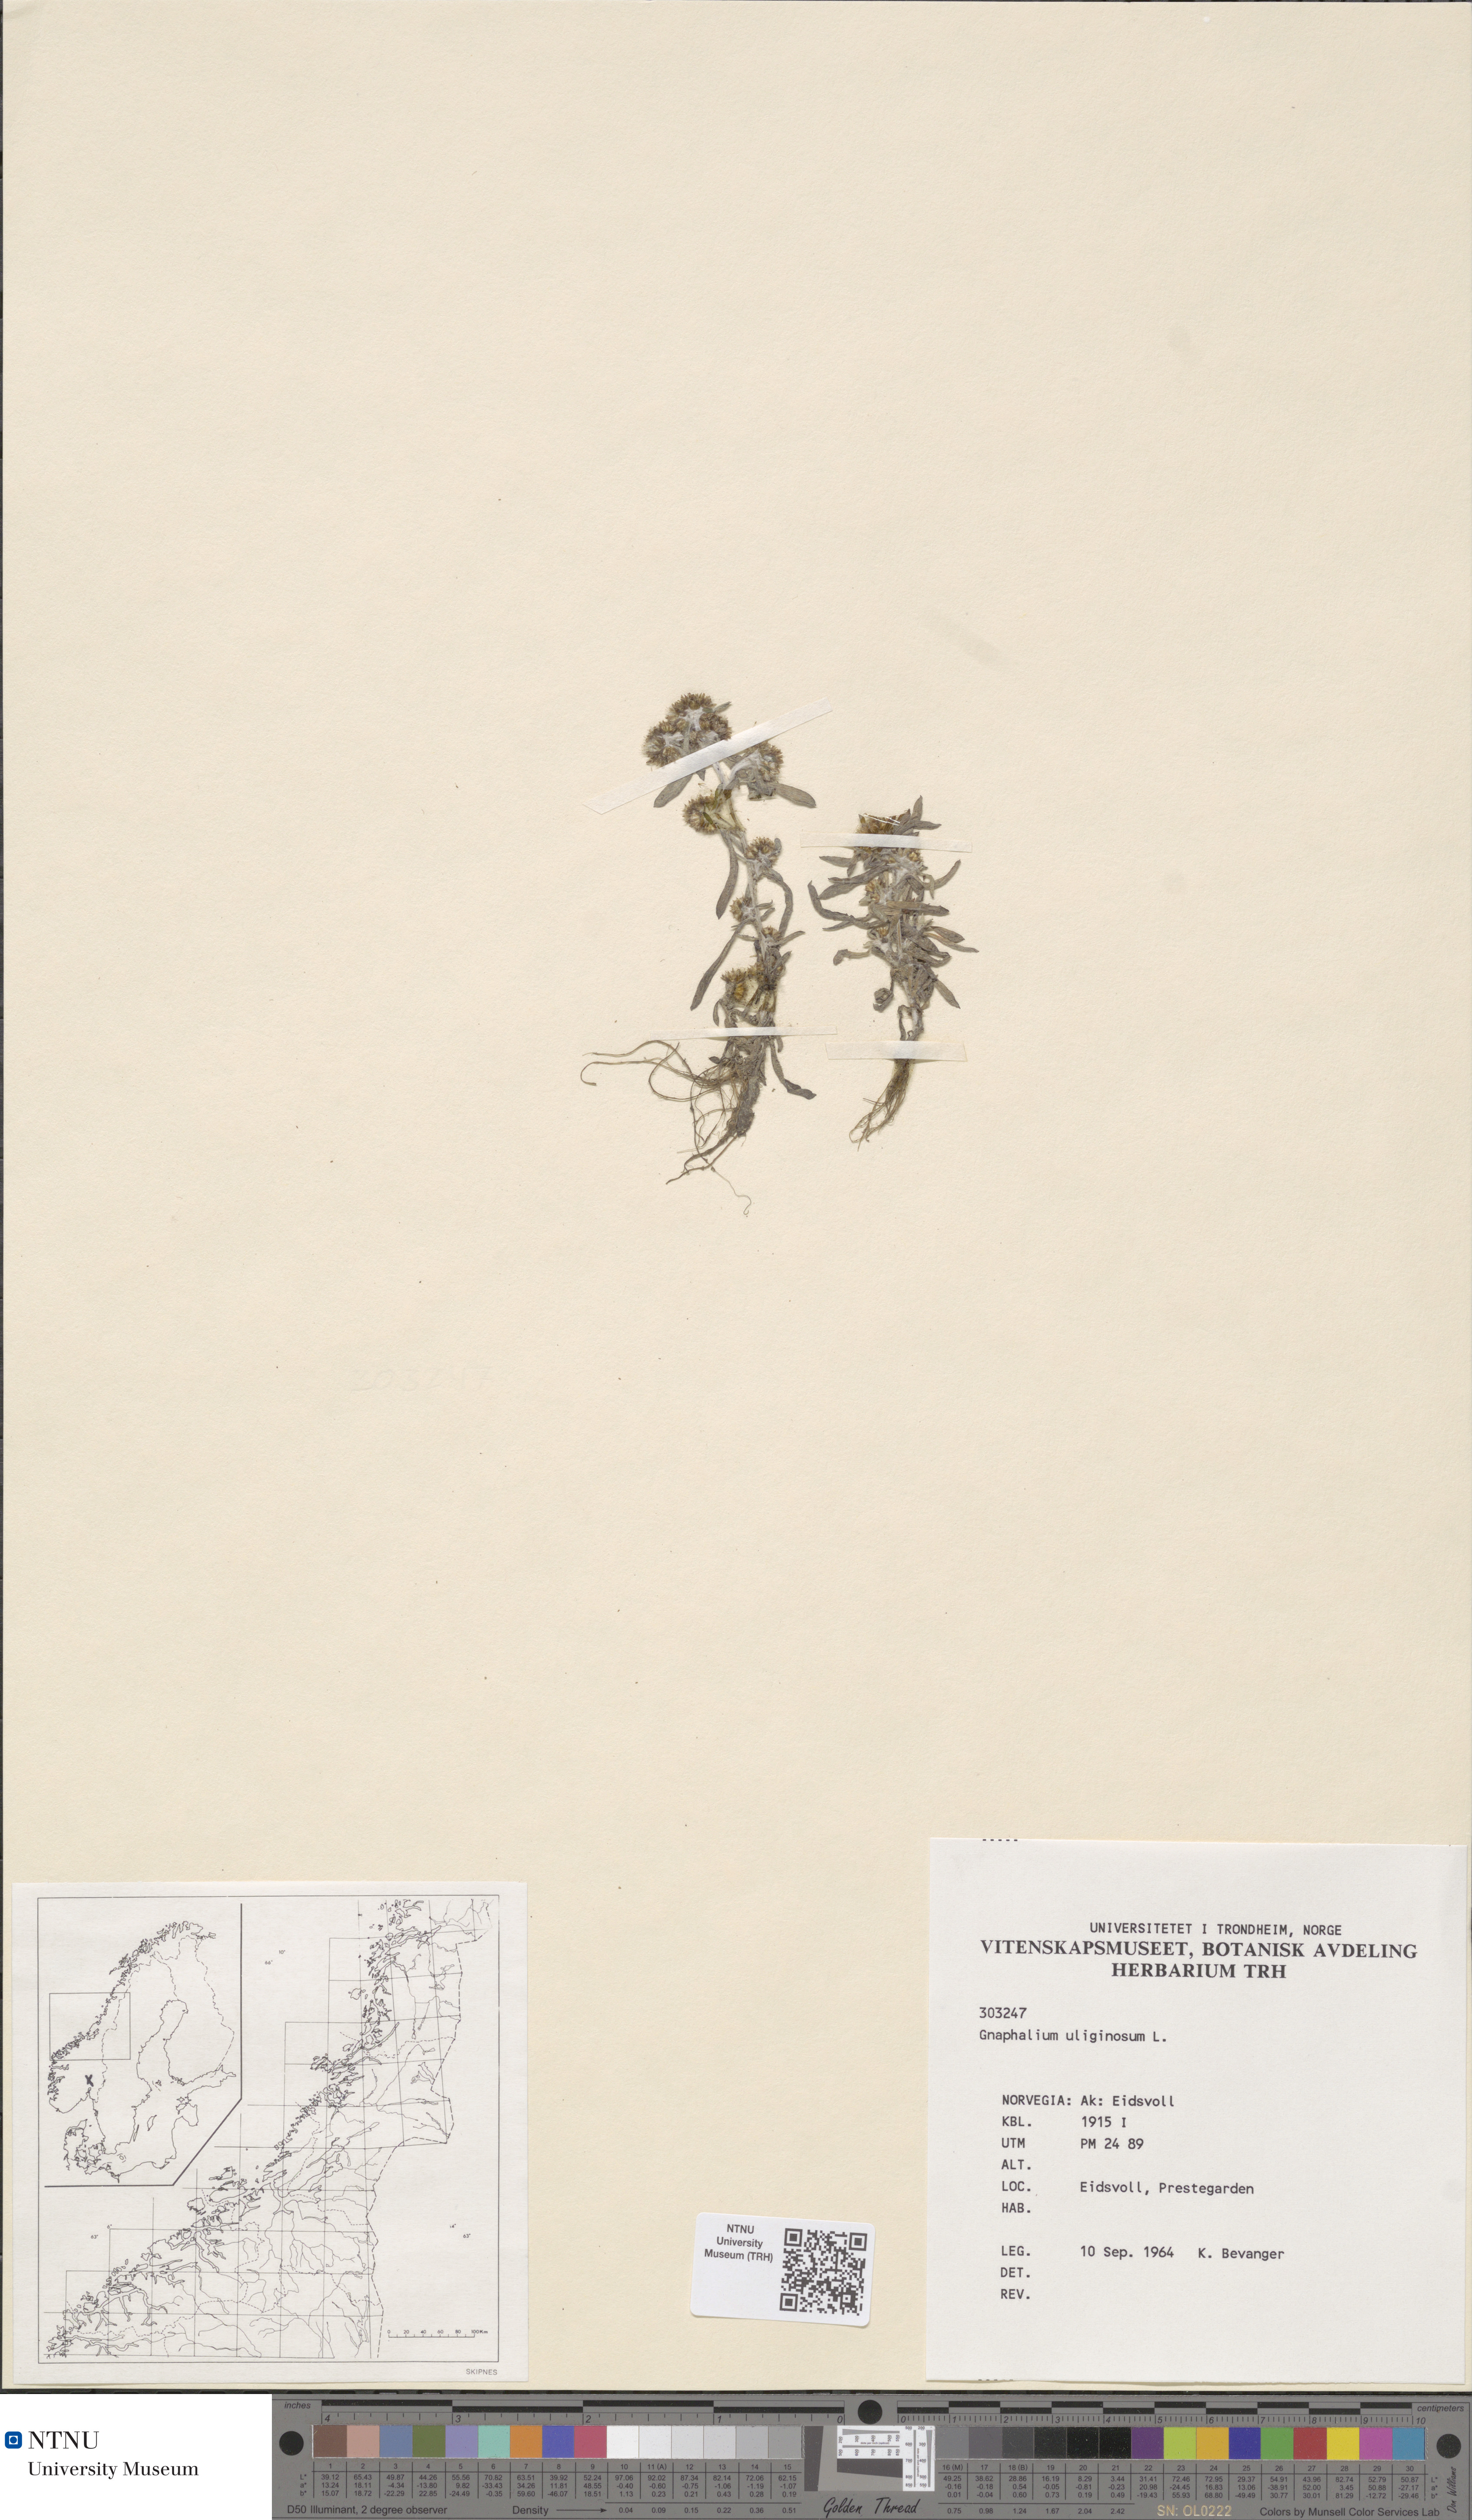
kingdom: Plantae
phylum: Tracheophyta
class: Magnoliopsida
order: Asterales
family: Asteraceae
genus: Gnaphalium
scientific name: Gnaphalium uliginosum
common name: Marsh cudweed
